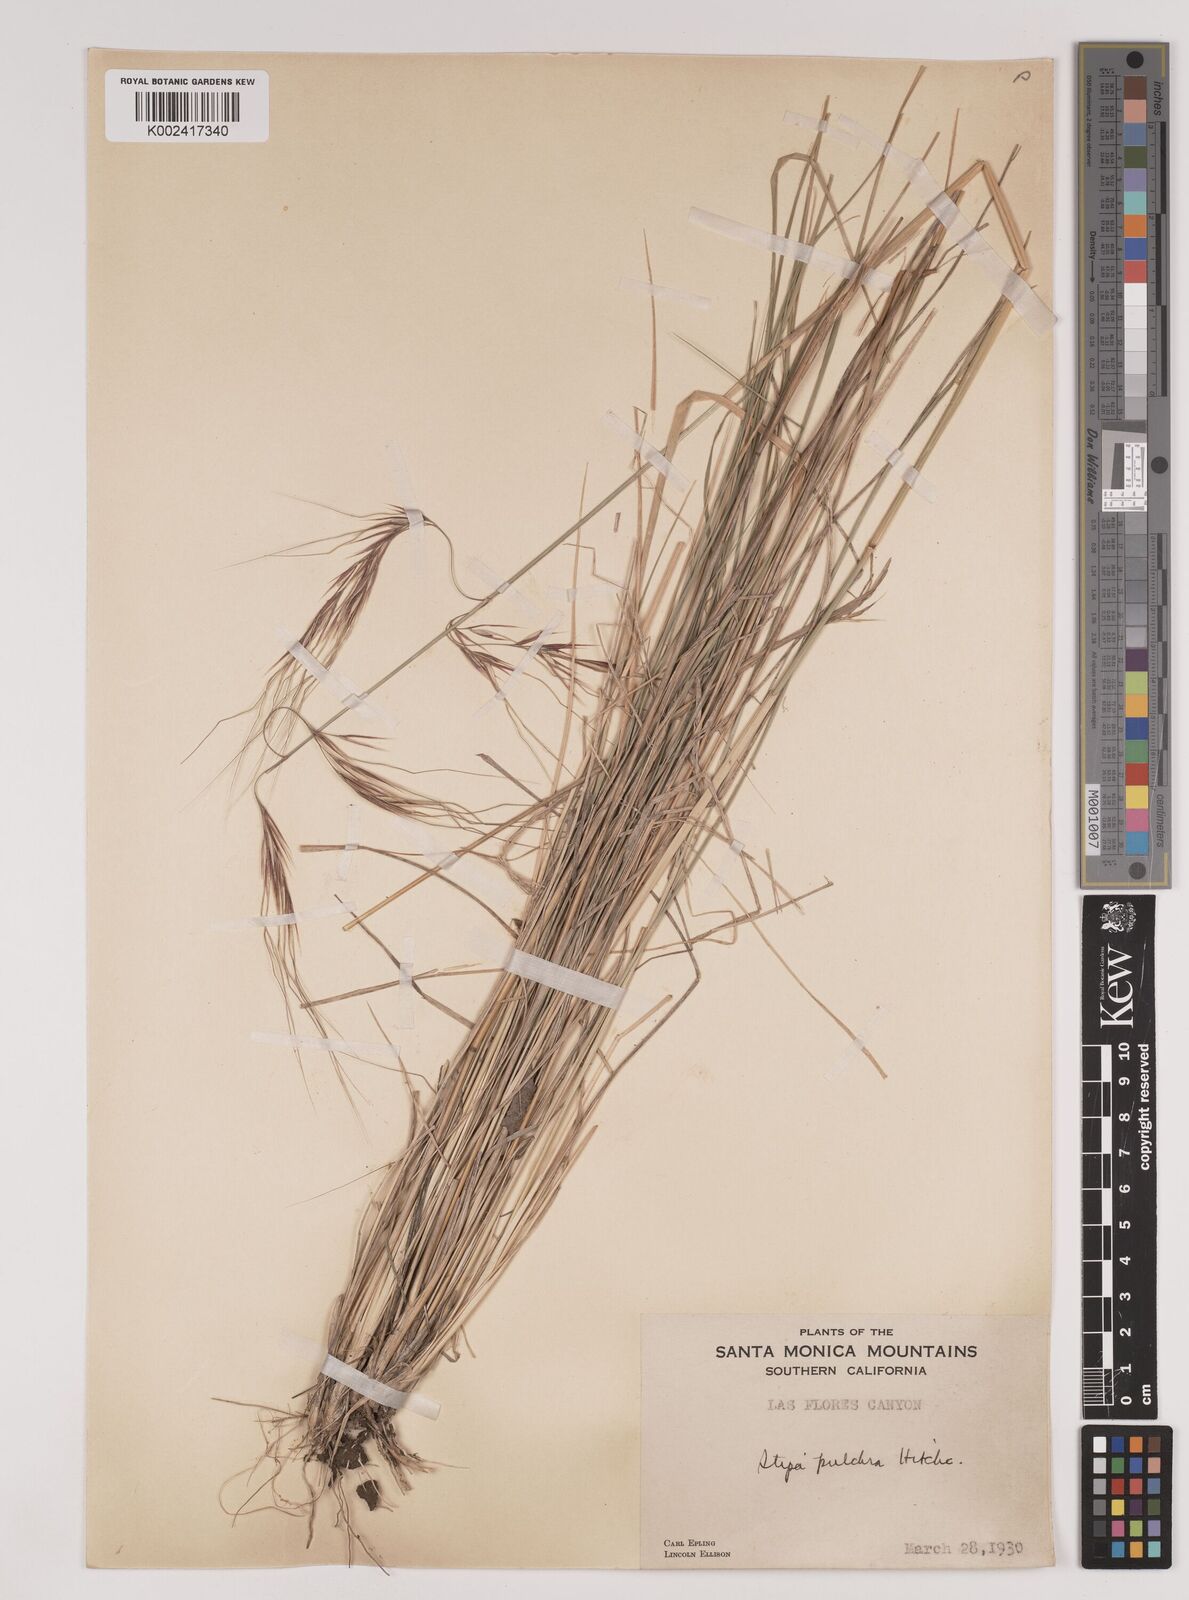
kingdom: Plantae
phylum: Tracheophyta
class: Liliopsida
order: Poales
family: Poaceae
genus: Nassella
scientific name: Nassella pulchra
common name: Purple needlegrass
